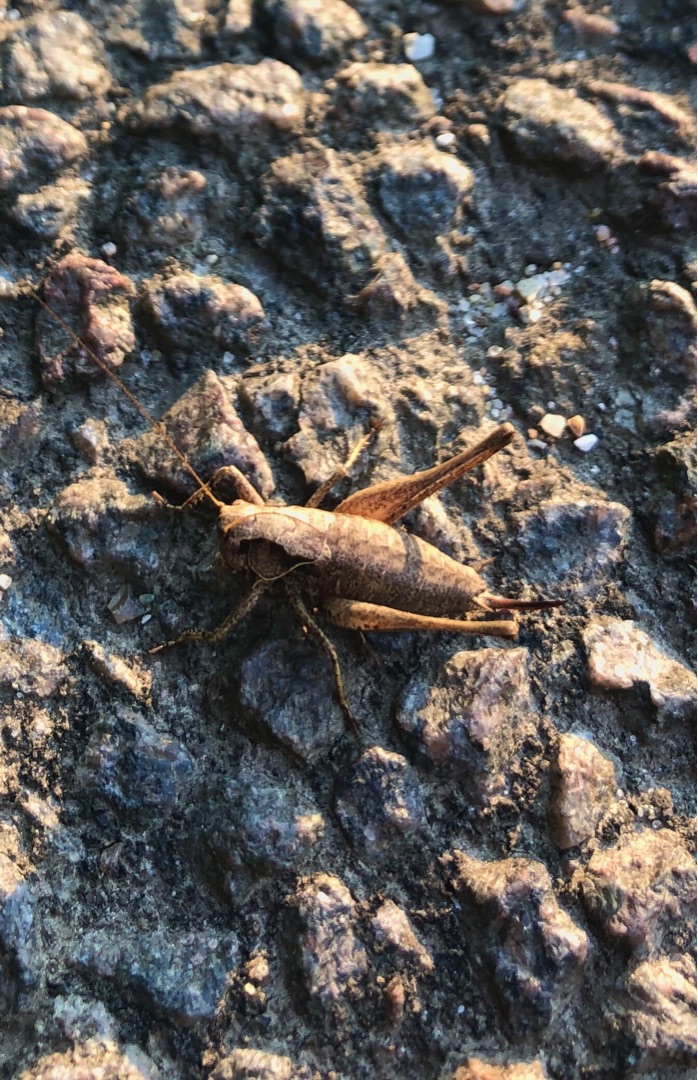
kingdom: Animalia
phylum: Arthropoda
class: Insecta
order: Orthoptera
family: Tettigoniidae
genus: Pholidoptera
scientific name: Pholidoptera griseoaptera
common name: Buskgræshoppe
